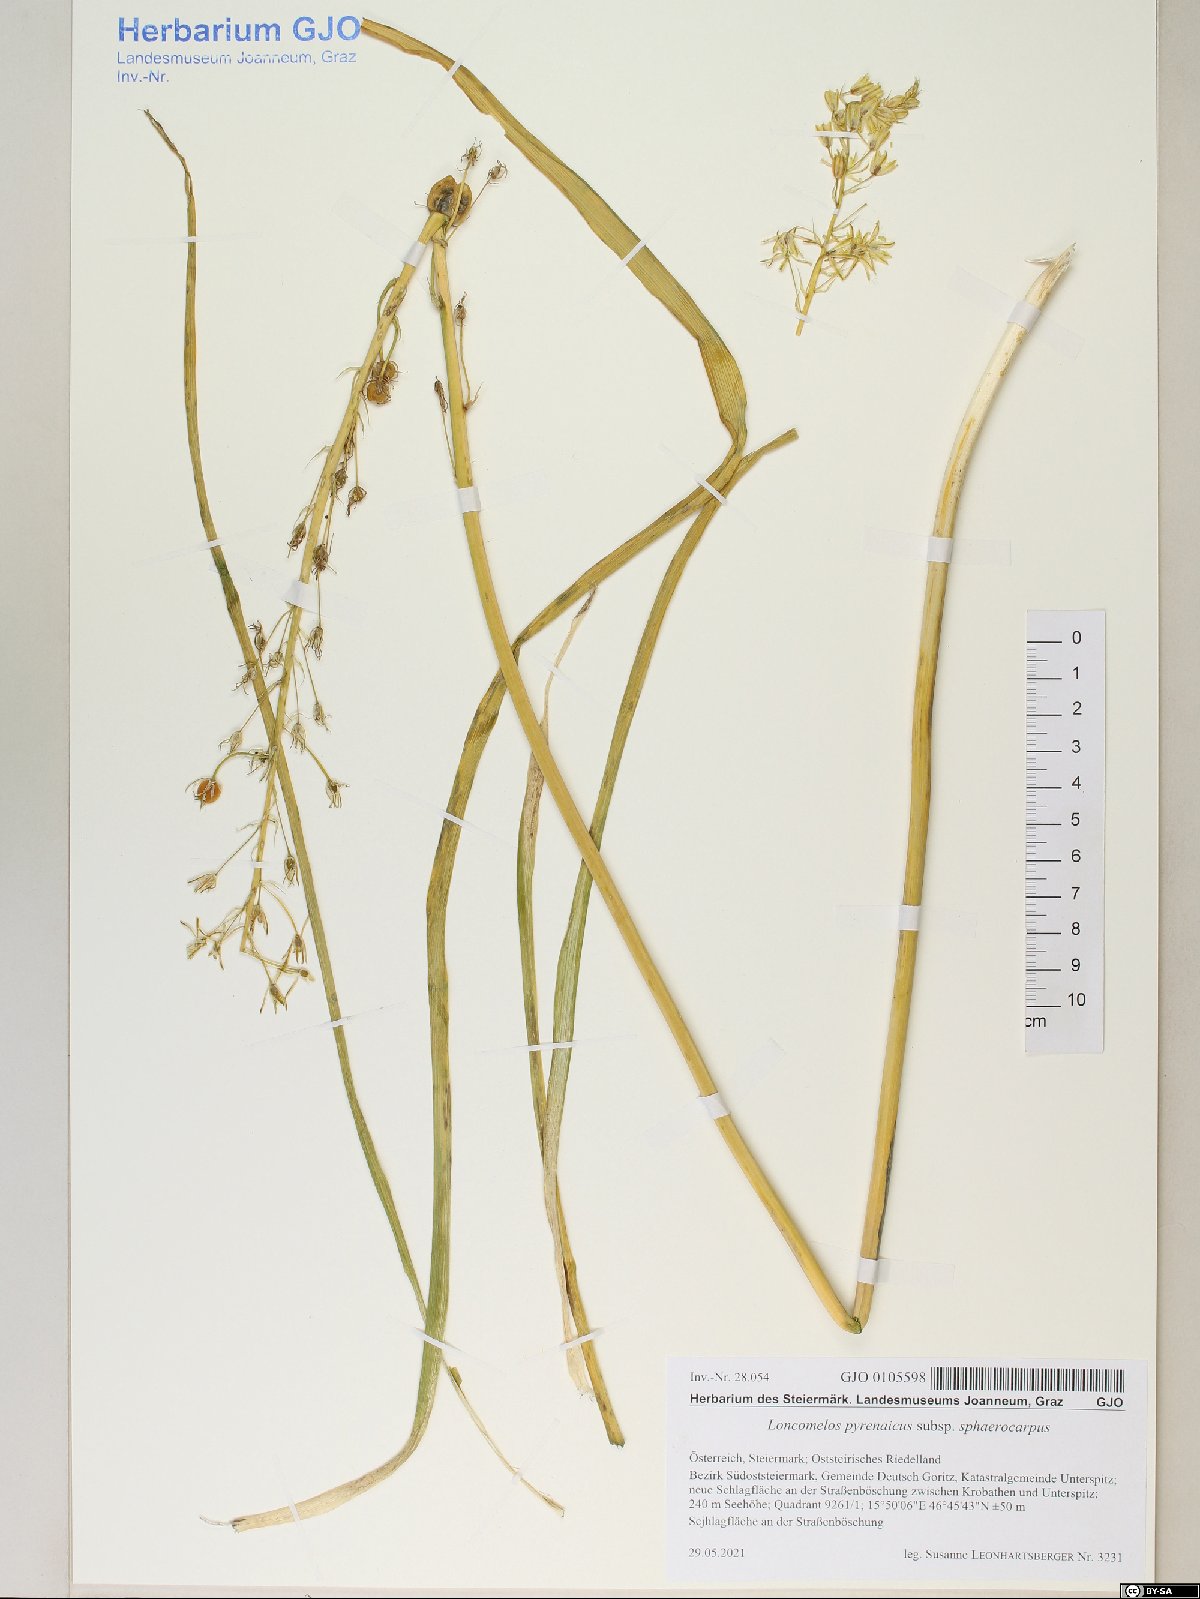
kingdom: Plantae
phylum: Tracheophyta
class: Liliopsida
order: Asparagales
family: Asparagaceae
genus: Ornithogalum
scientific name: Ornithogalum sphaerocarpum
